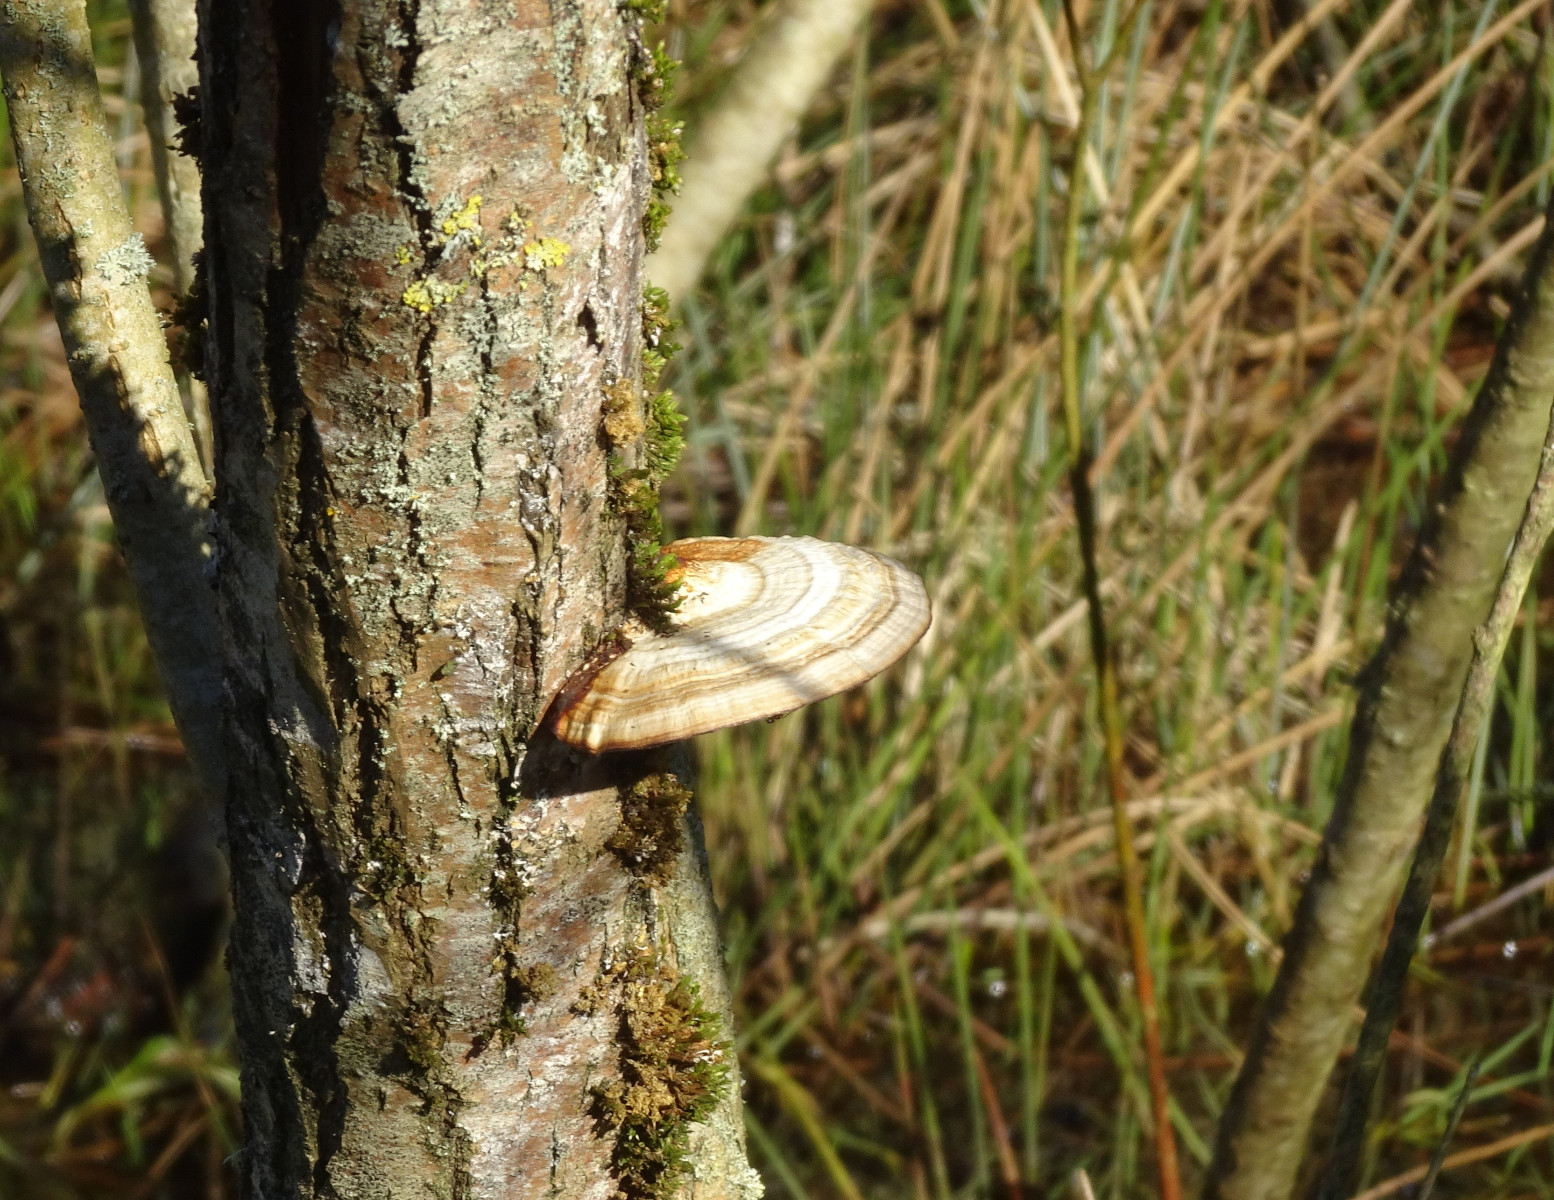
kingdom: Fungi
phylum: Basidiomycota
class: Agaricomycetes
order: Polyporales
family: Polyporaceae
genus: Daedaleopsis
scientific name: Daedaleopsis confragosa
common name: rødmende læderporesvamp
